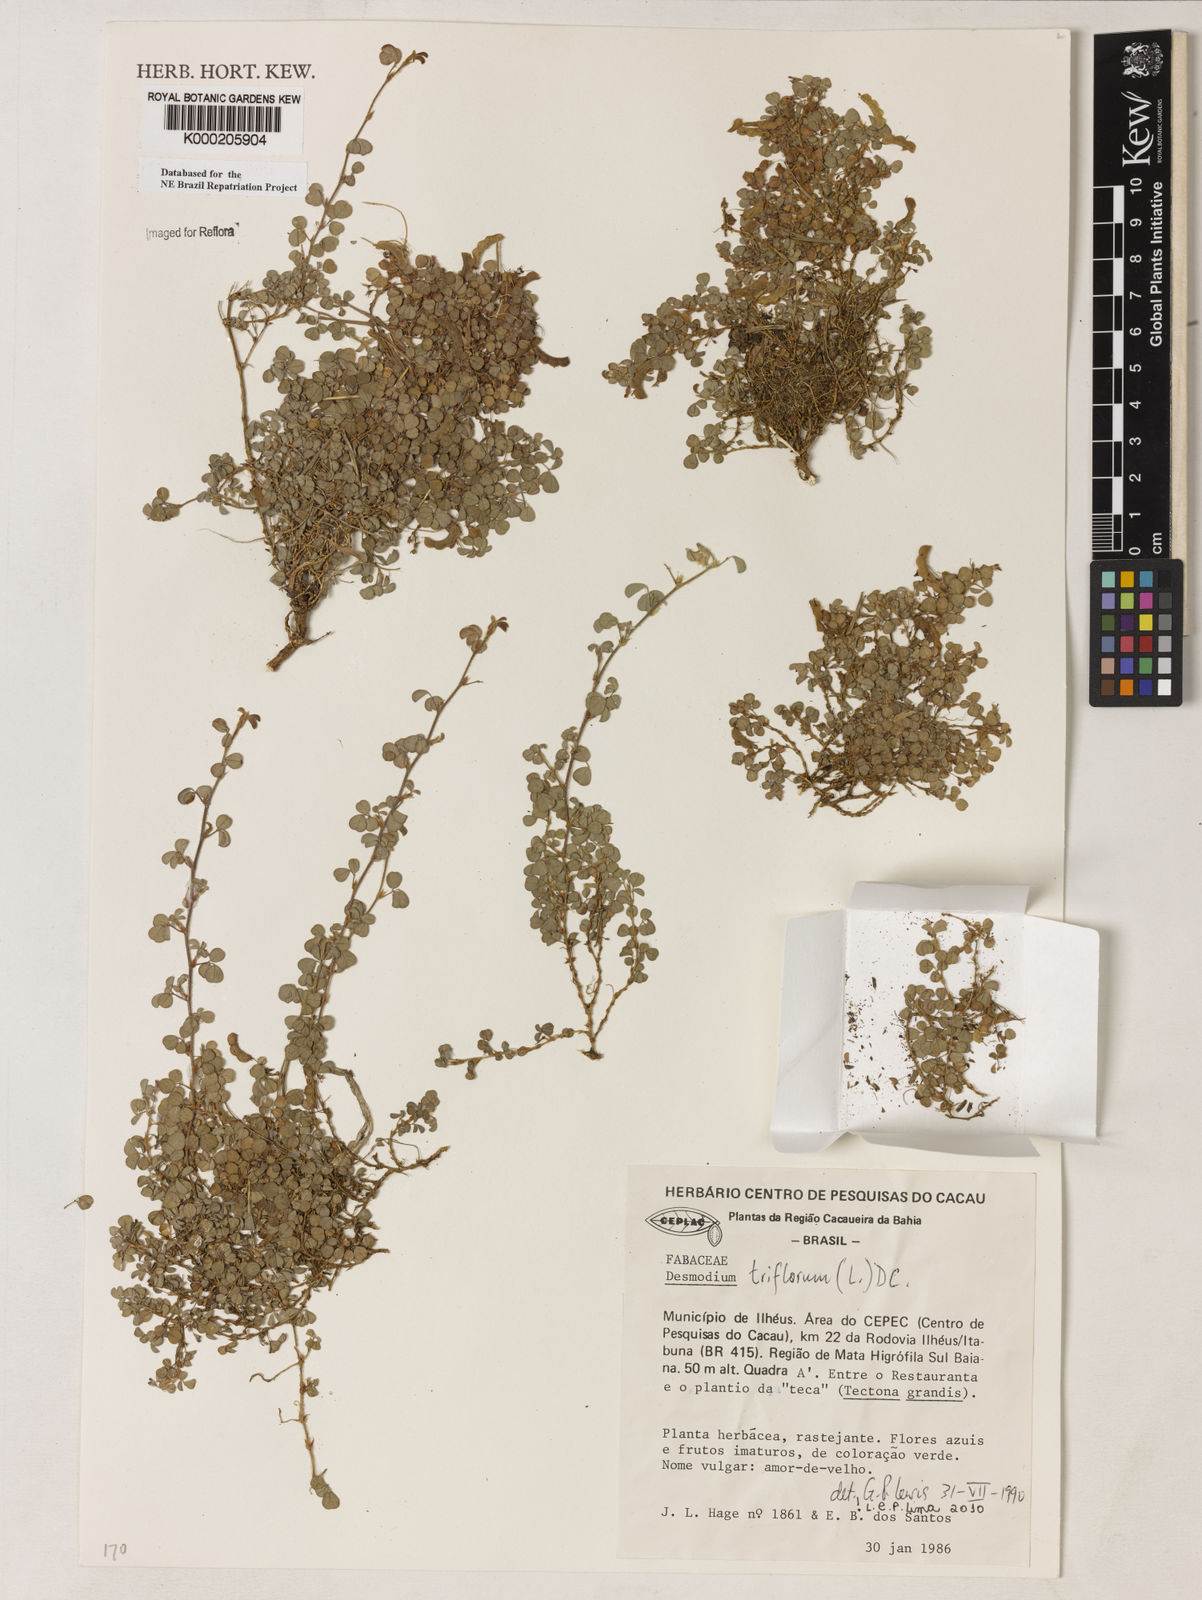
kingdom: Plantae
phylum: Tracheophyta
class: Magnoliopsida
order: Fabales
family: Fabaceae
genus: Grona
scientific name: Grona triflora
